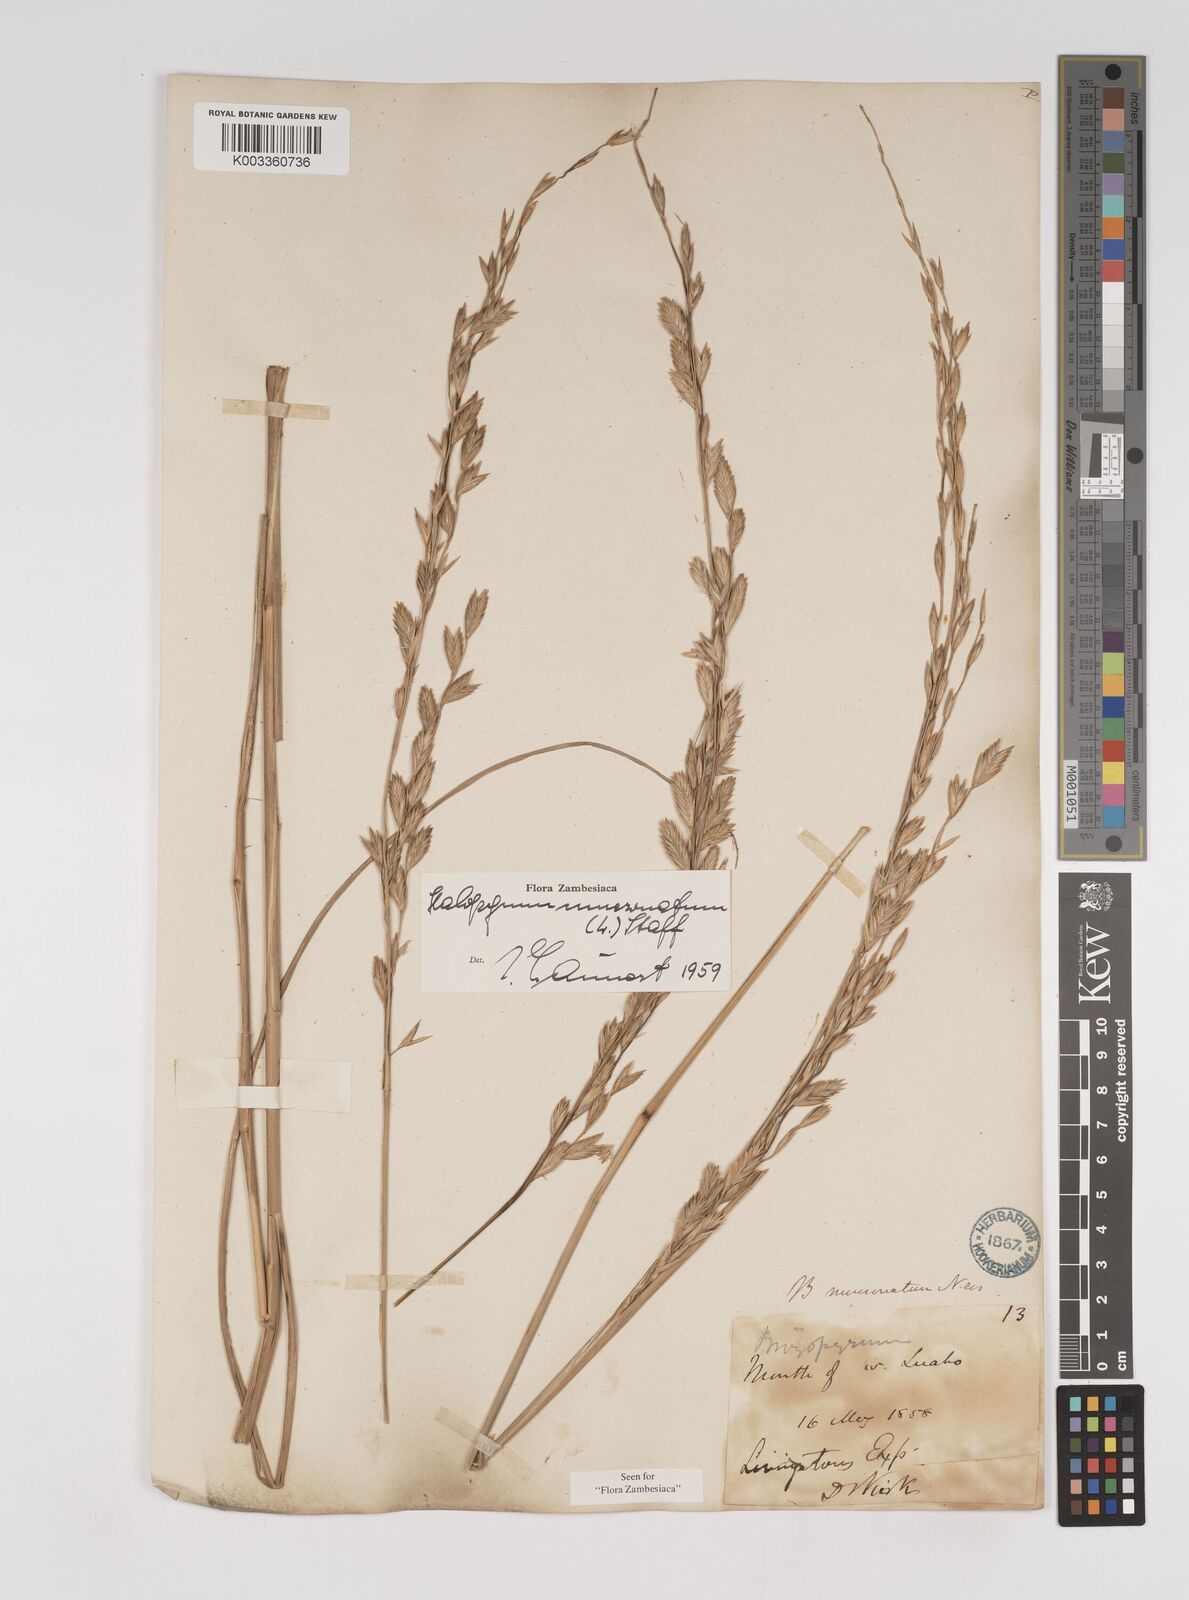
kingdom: Plantae
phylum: Tracheophyta
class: Liliopsida
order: Poales
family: Poaceae
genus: Halopyrum
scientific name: Halopyrum mucronatum
